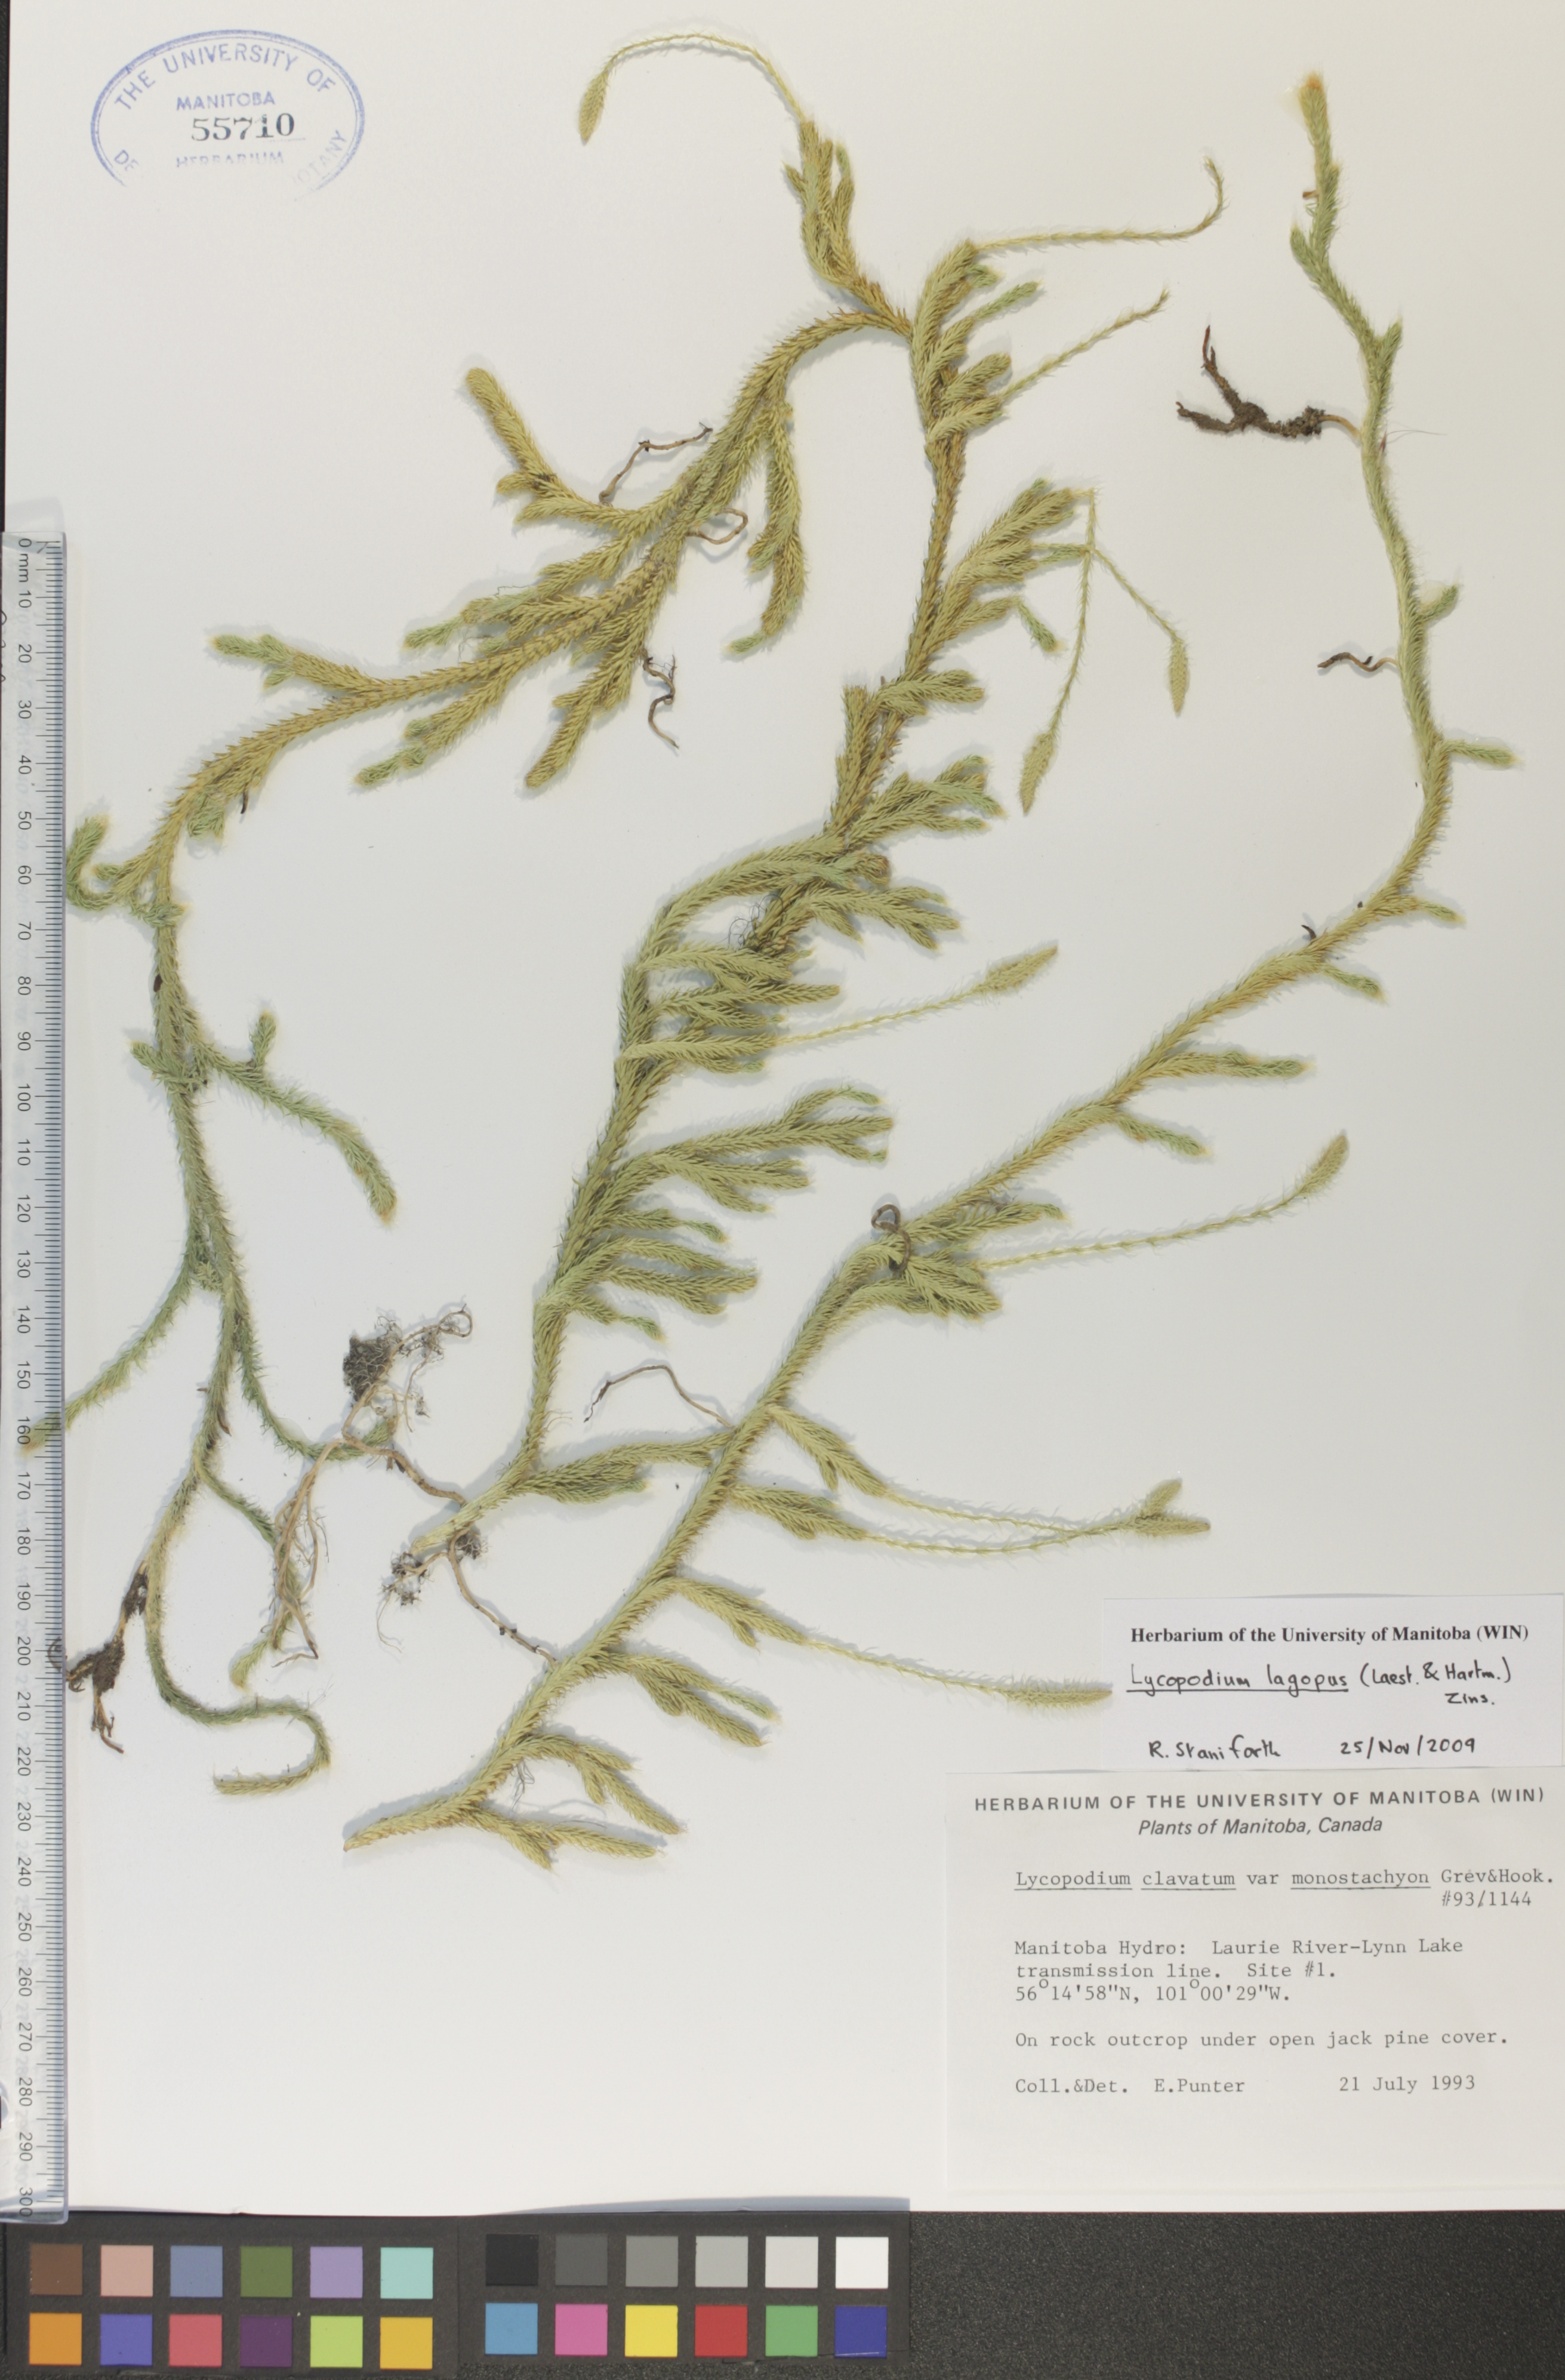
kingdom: Plantae
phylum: Tracheophyta
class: Lycopodiopsida
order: Lycopodiales
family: Lycopodiaceae
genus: Lycopodium
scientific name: Lycopodium lagopus
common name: One-cone clubmoss
